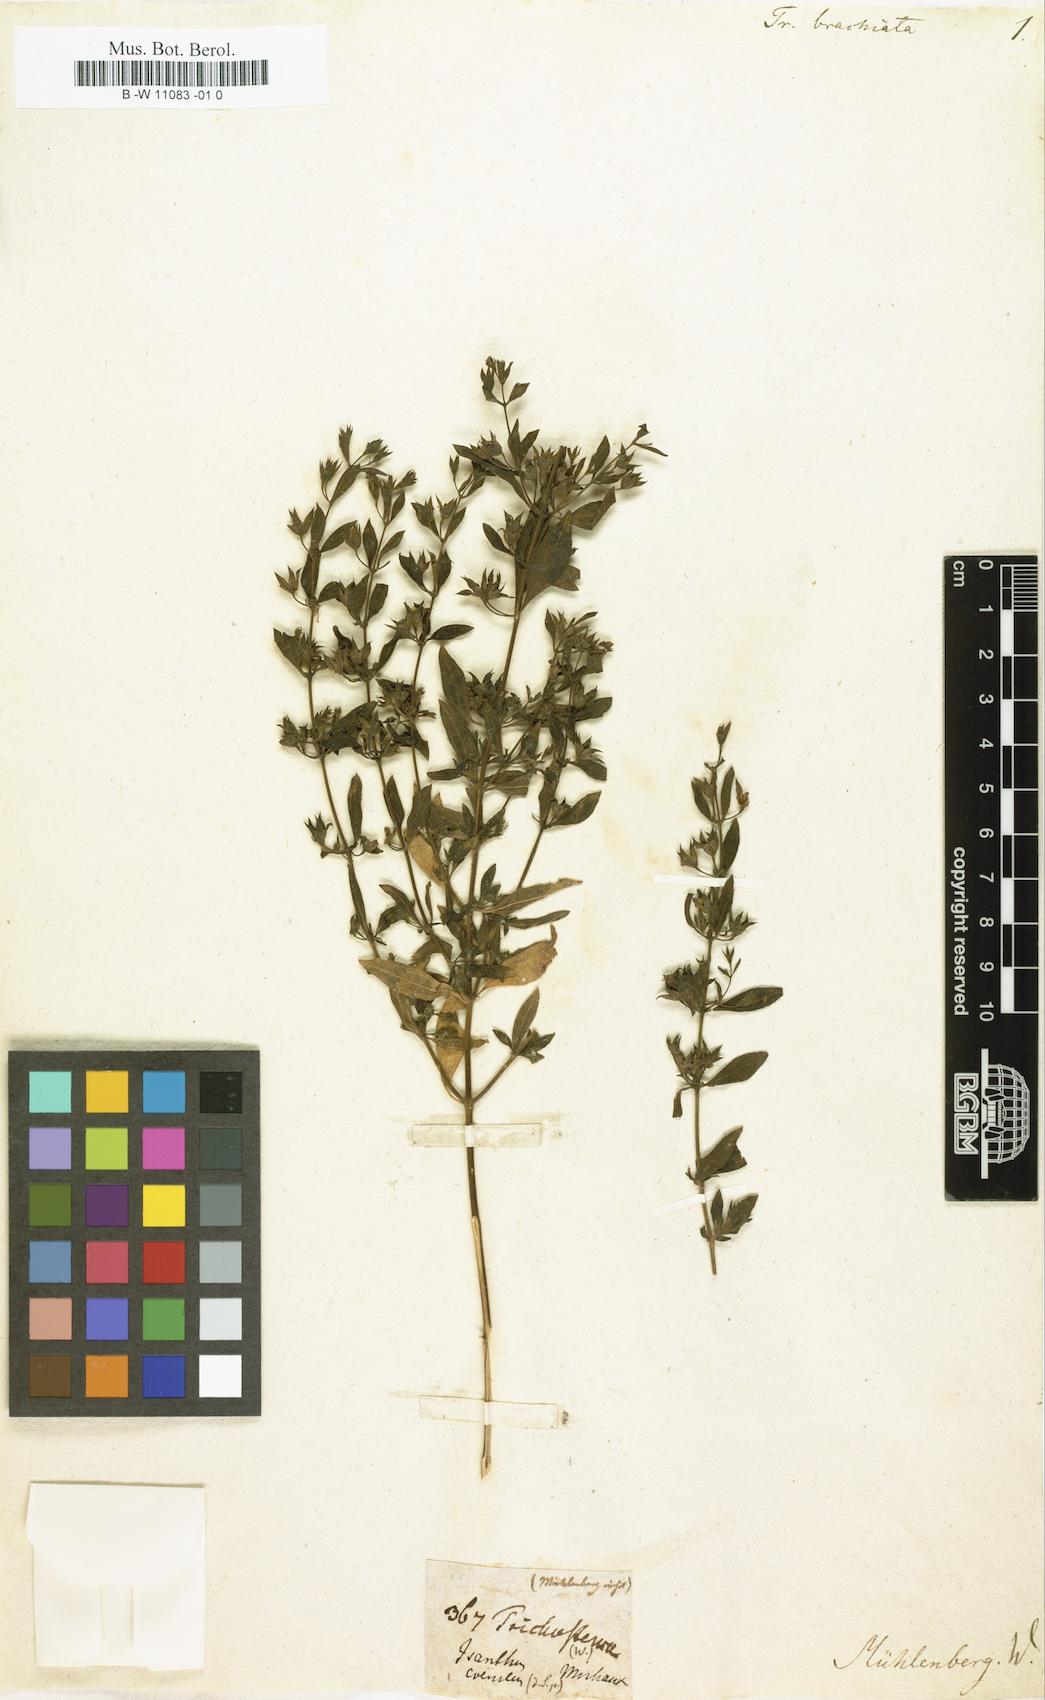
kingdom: Plantae
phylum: Tracheophyta
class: Magnoliopsida
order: Lamiales
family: Lamiaceae
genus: Trichostema
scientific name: Trichostema brachiatum
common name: False pennyroyal
